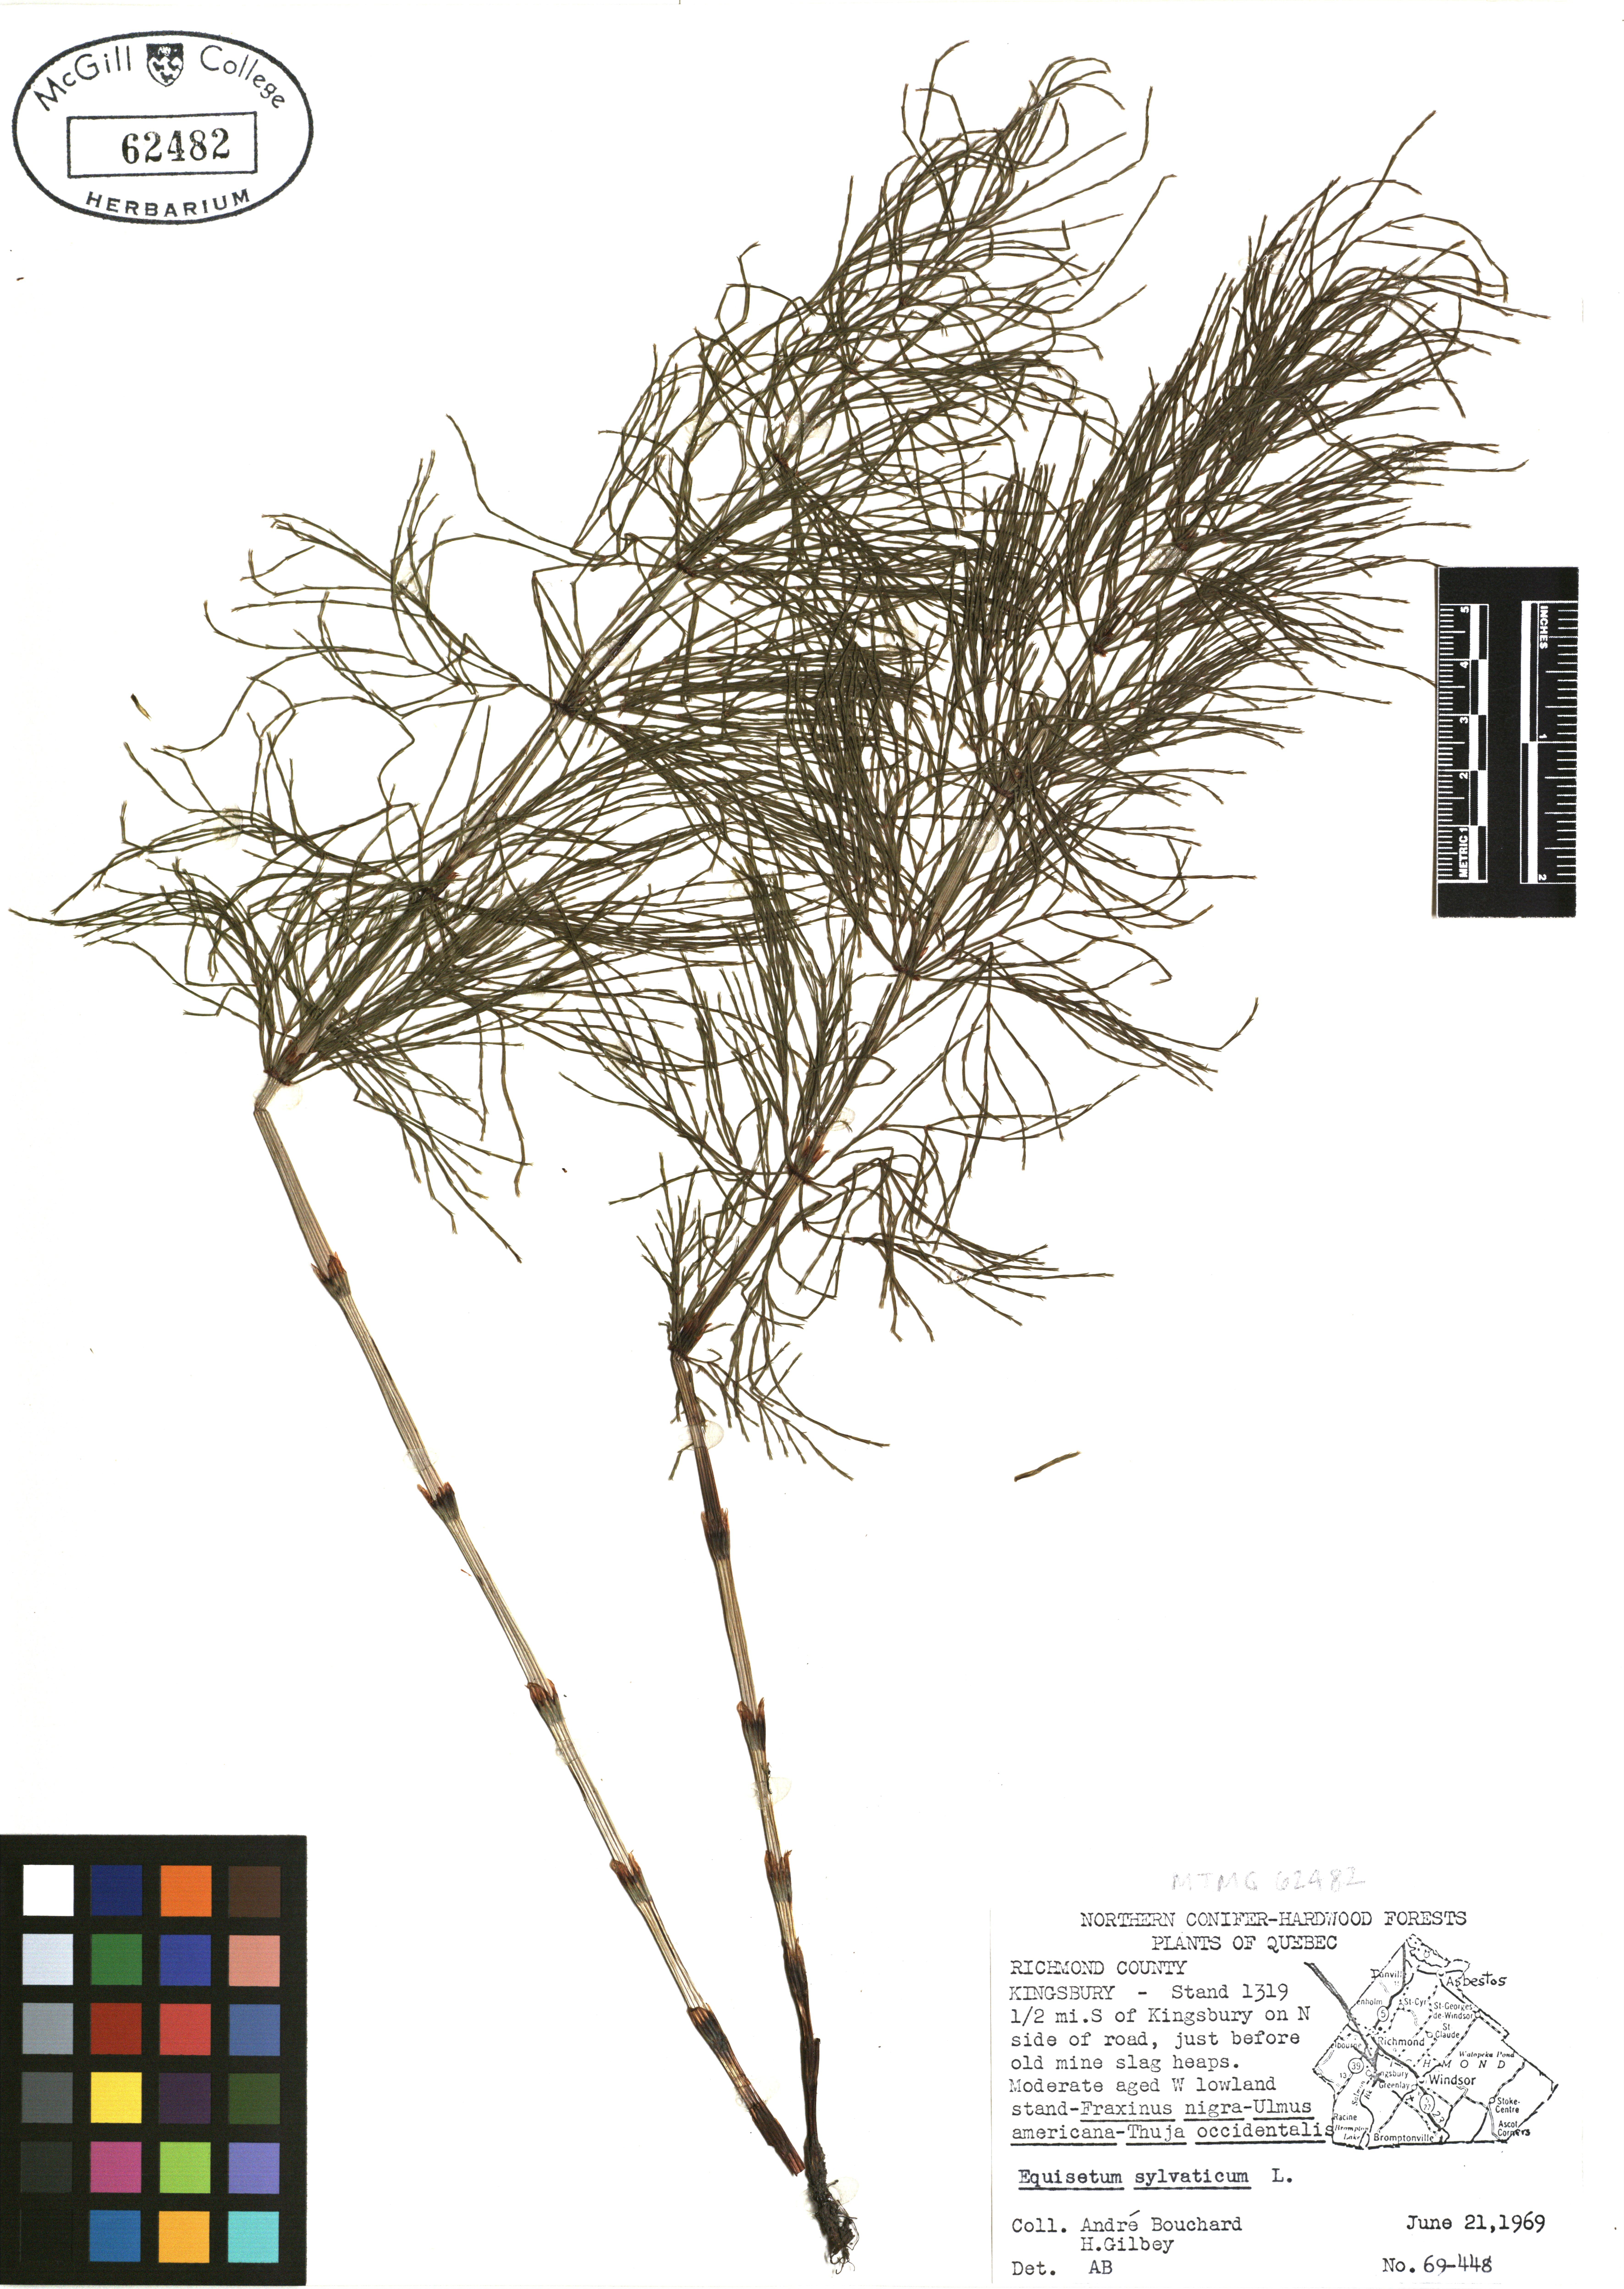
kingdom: Plantae
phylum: Tracheophyta
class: Polypodiopsida
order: Equisetales
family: Equisetaceae
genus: Equisetum
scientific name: Equisetum sylvaticum
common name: Wood horsetail
